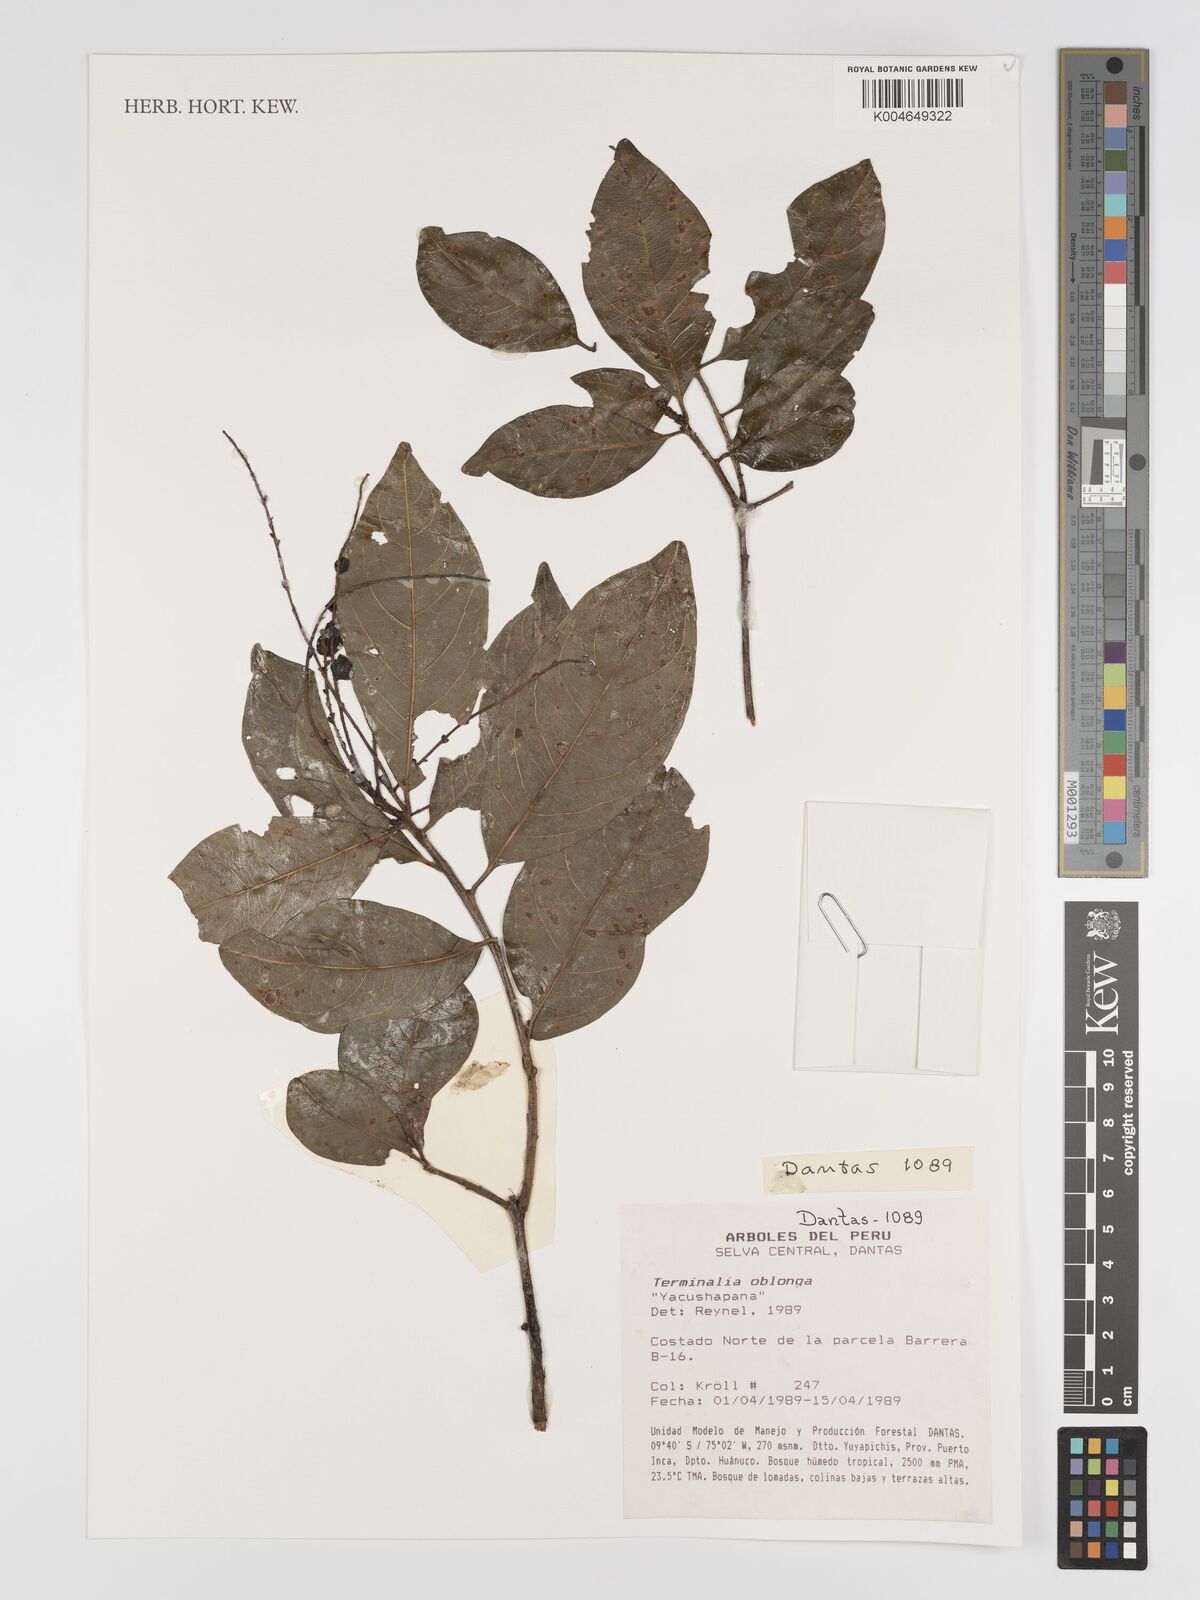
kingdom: Plantae
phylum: Tracheophyta
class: Magnoliopsida
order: Myrtales
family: Combretaceae
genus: Terminalia
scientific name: Terminalia oblonga
